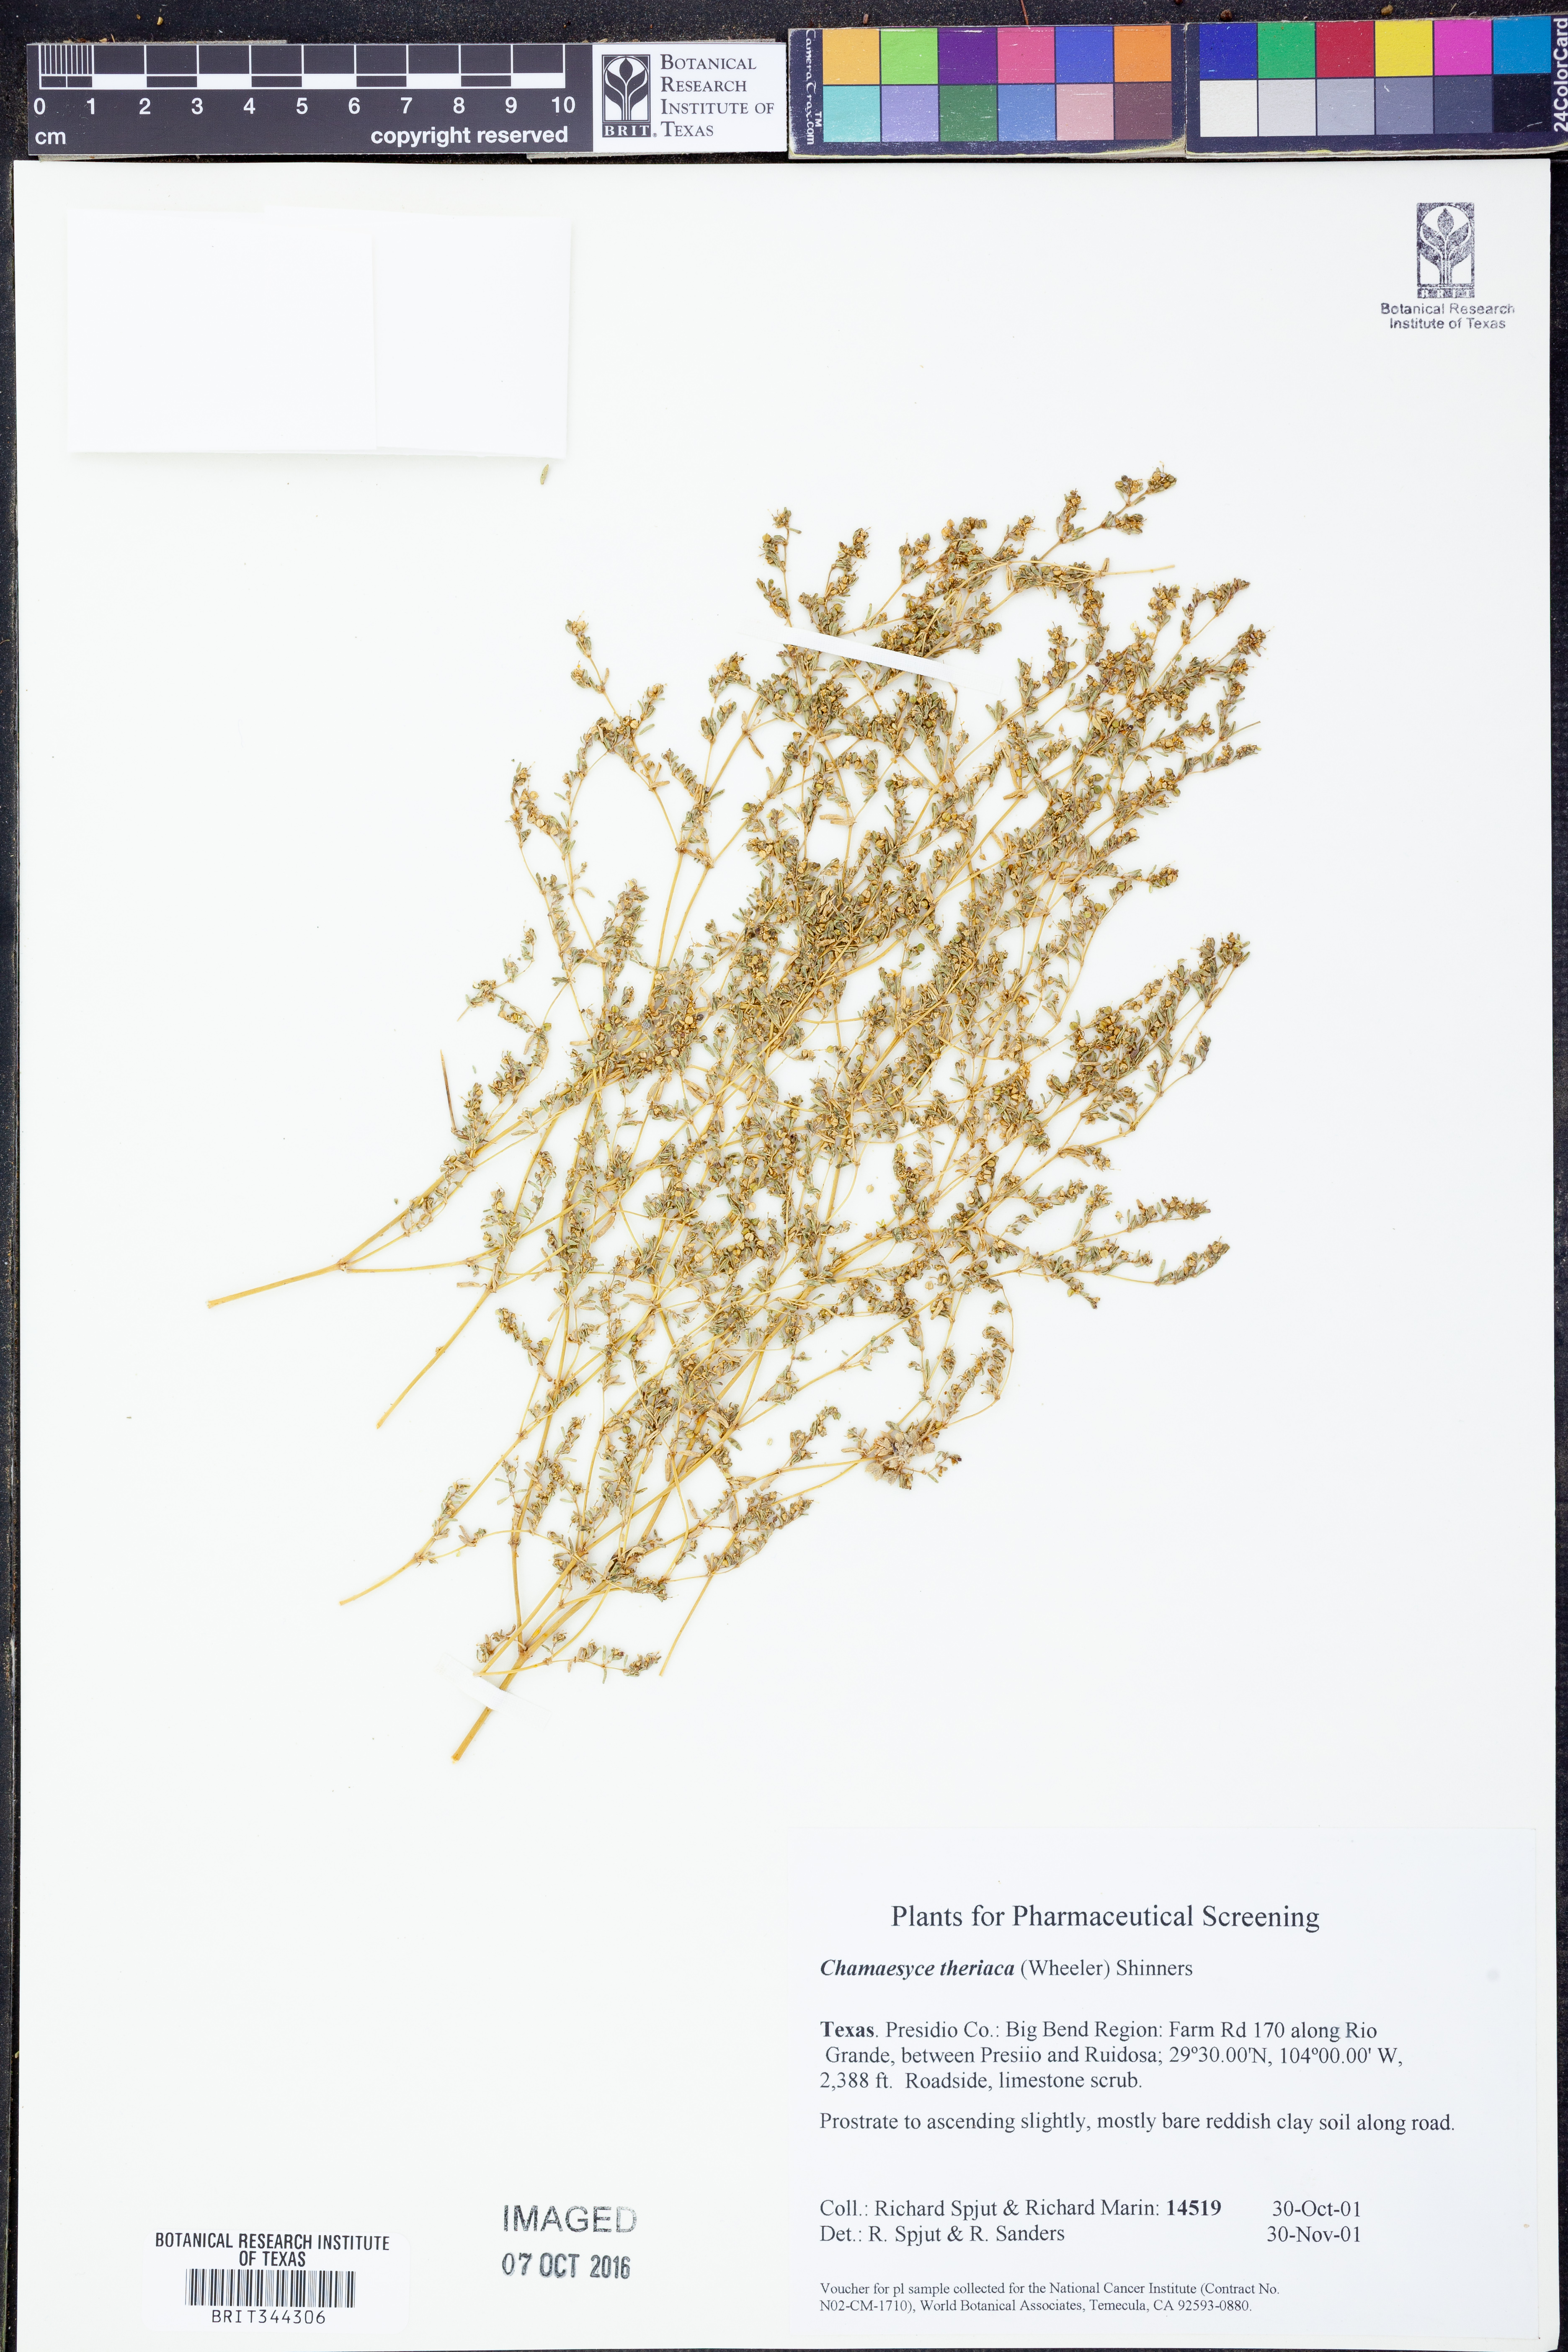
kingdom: Plantae
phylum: Tracheophyta
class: Magnoliopsida
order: Malpighiales
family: Euphorbiaceae
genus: Euphorbia
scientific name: Euphorbia theriaca
